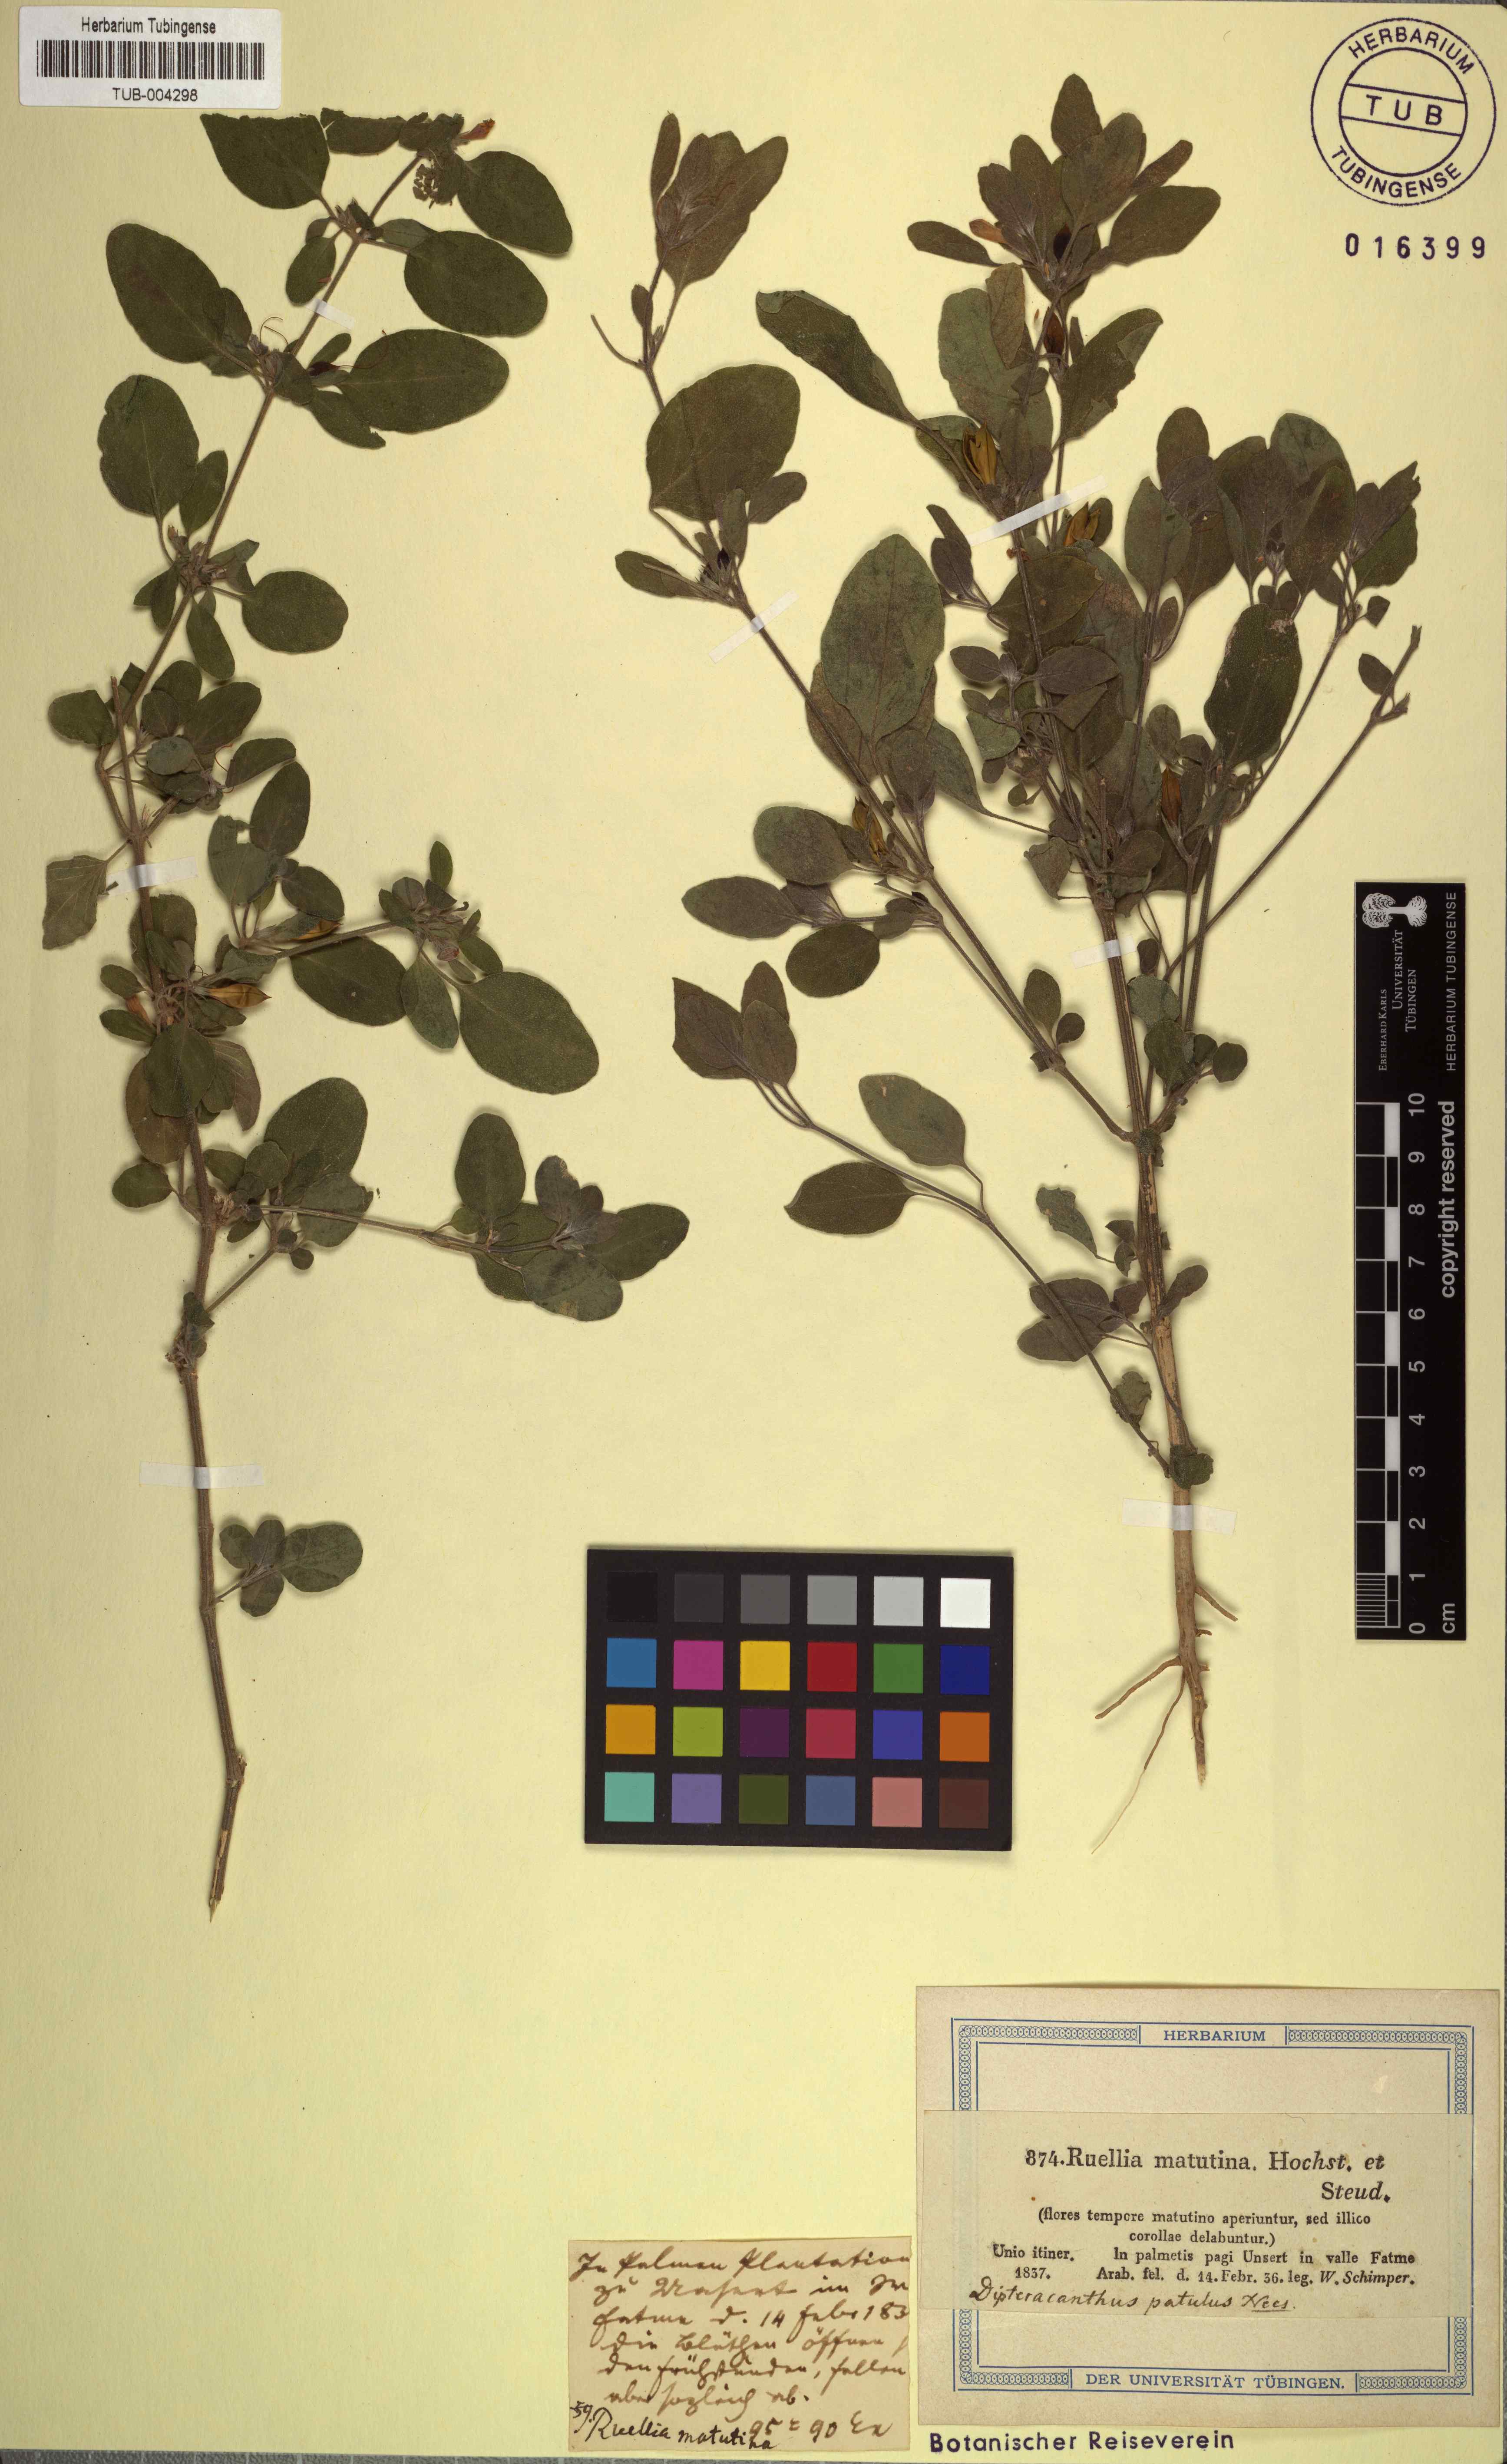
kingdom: Plantae
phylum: Tracheophyta
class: Magnoliopsida
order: Lamiales
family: Acanthaceae
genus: Ruellia
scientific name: Ruellia patula
